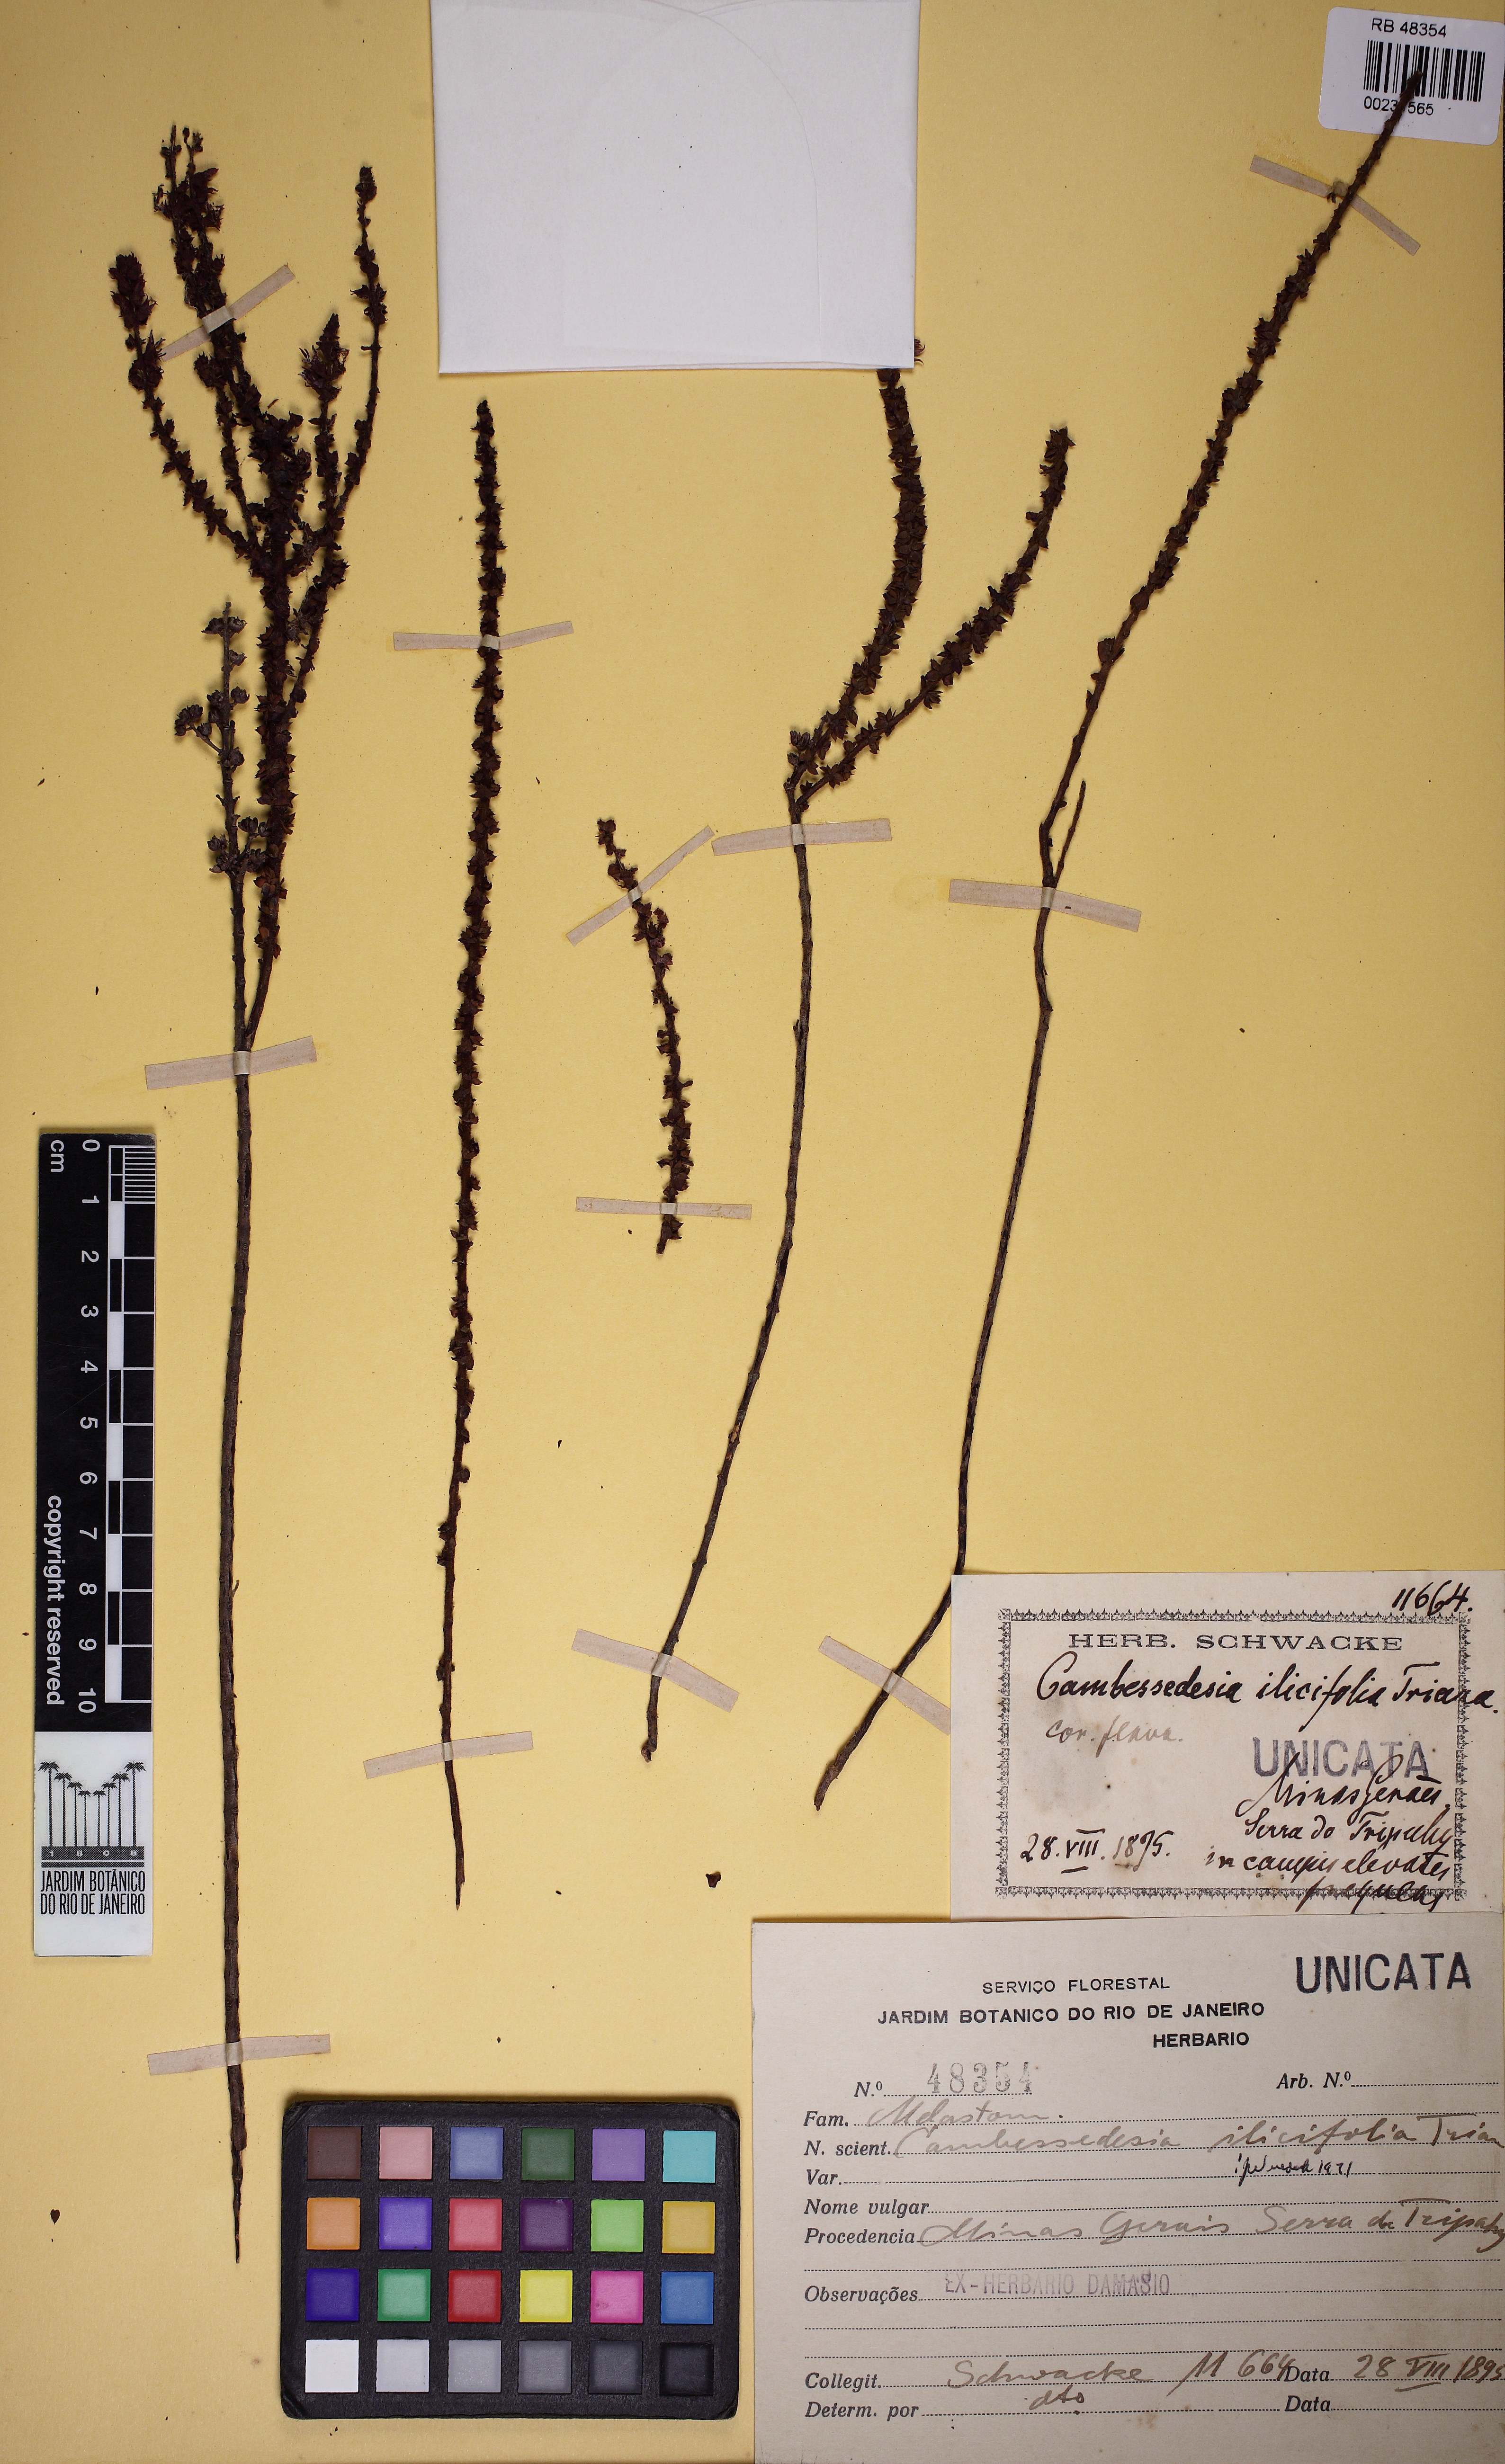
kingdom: Plantae
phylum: Tracheophyta
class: Magnoliopsida
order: Myrtales
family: Melastomataceae
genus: Cambessedesia
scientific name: Cambessedesia espora
